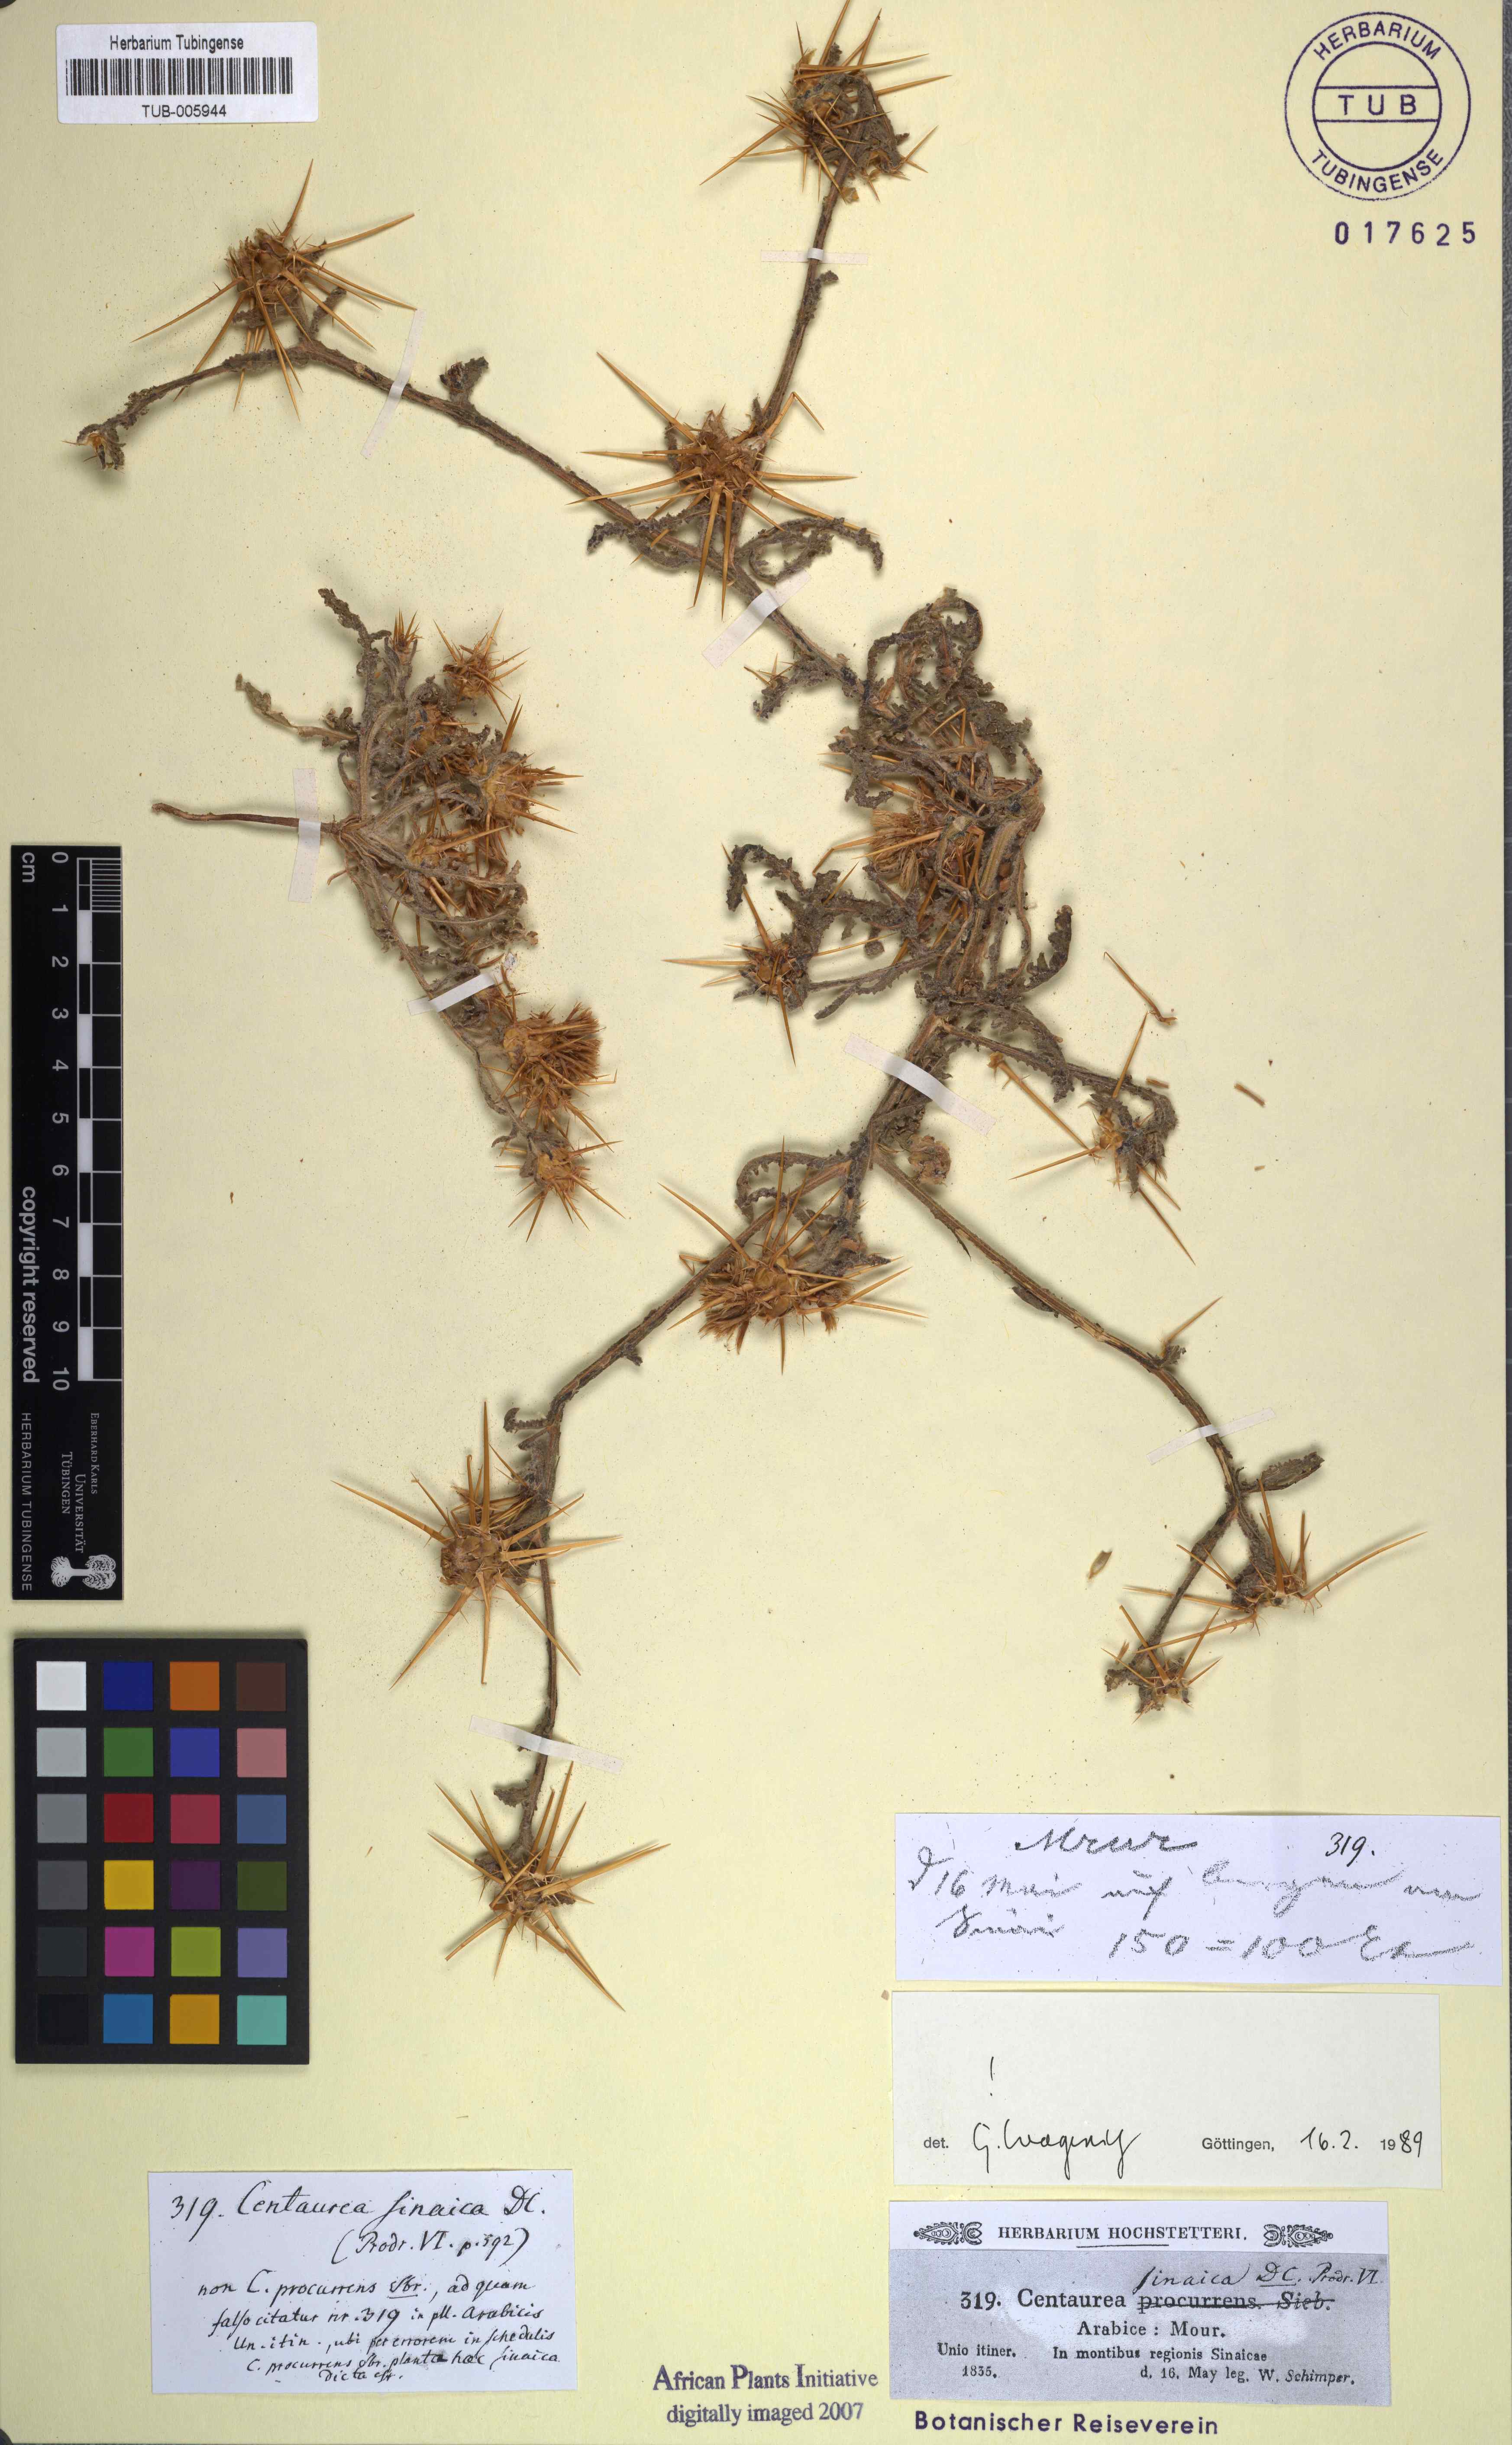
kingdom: Plantae
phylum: Tracheophyta
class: Magnoliopsida
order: Asterales
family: Asteraceae
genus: Centaurea
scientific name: Centaurea sinaica
